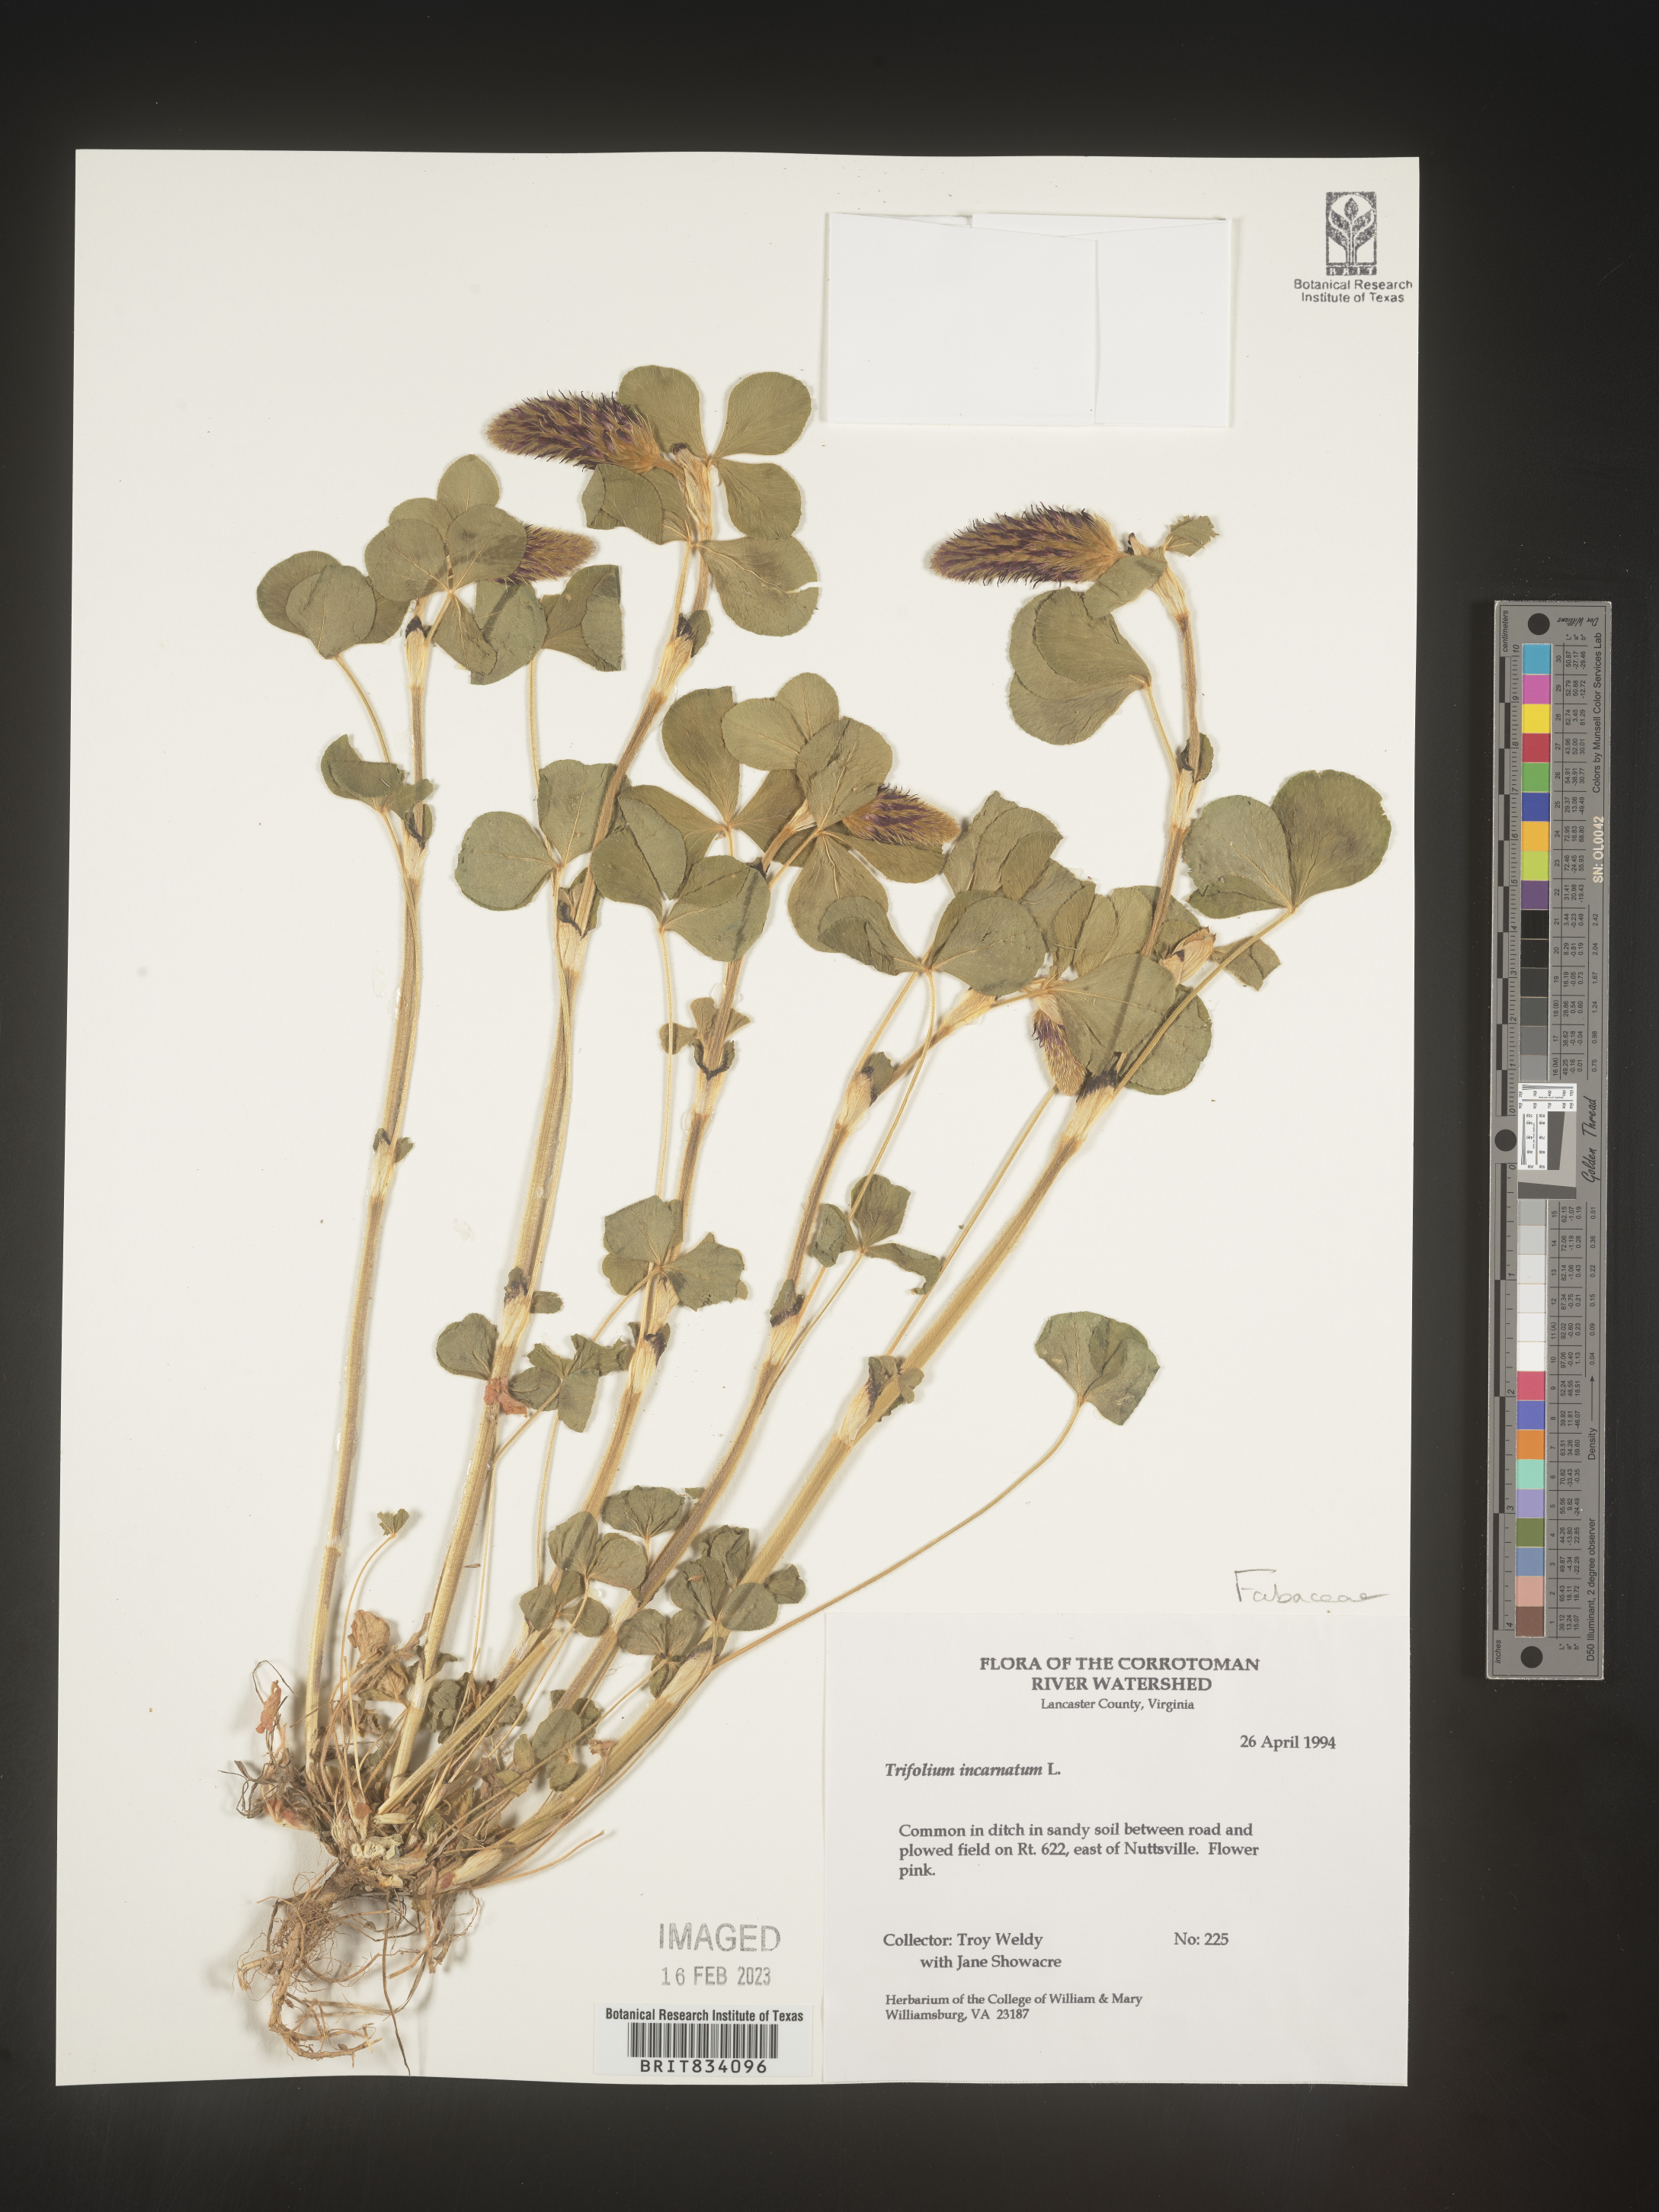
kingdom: Plantae
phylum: Tracheophyta
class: Magnoliopsida
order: Fabales
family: Fabaceae
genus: Trifolium
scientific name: Trifolium incarnatum
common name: Crimson clover
